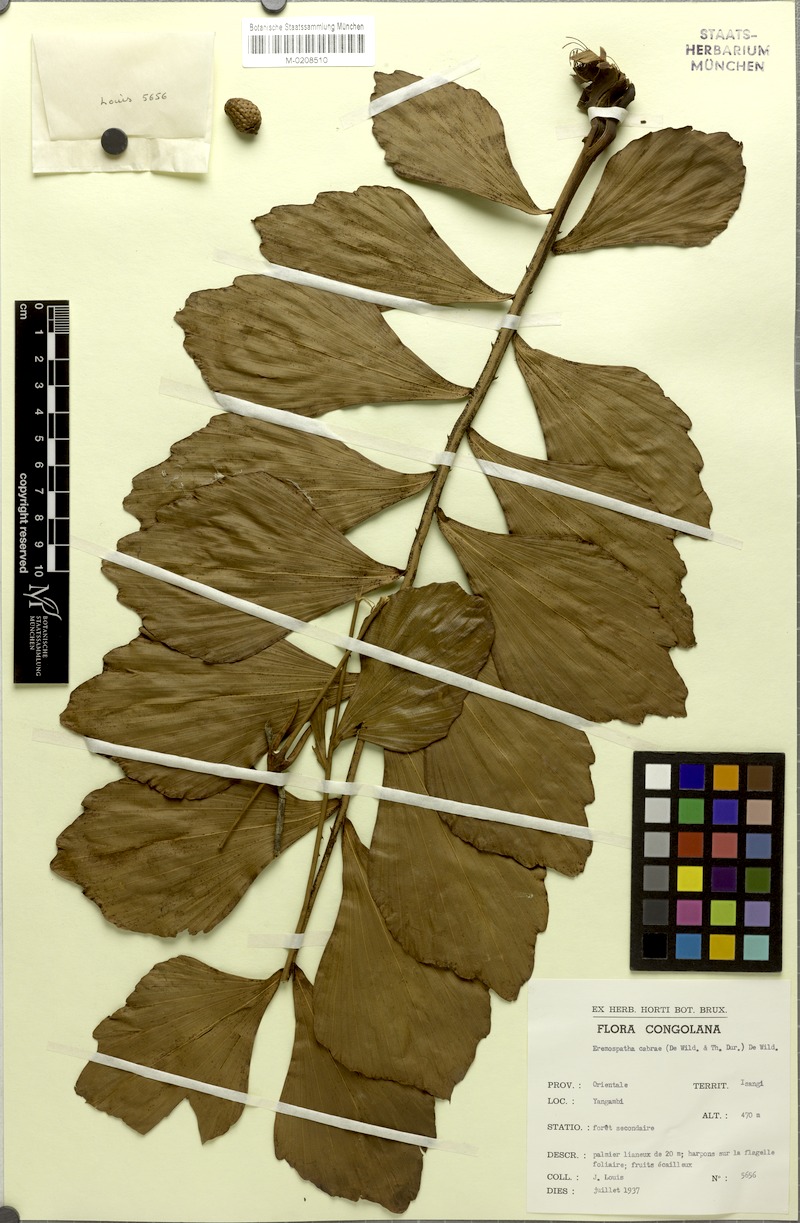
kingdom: Plantae
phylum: Tracheophyta
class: Liliopsida
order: Arecales
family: Arecaceae
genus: Eremospatha
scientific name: Eremospatha cabrae
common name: Rattan
